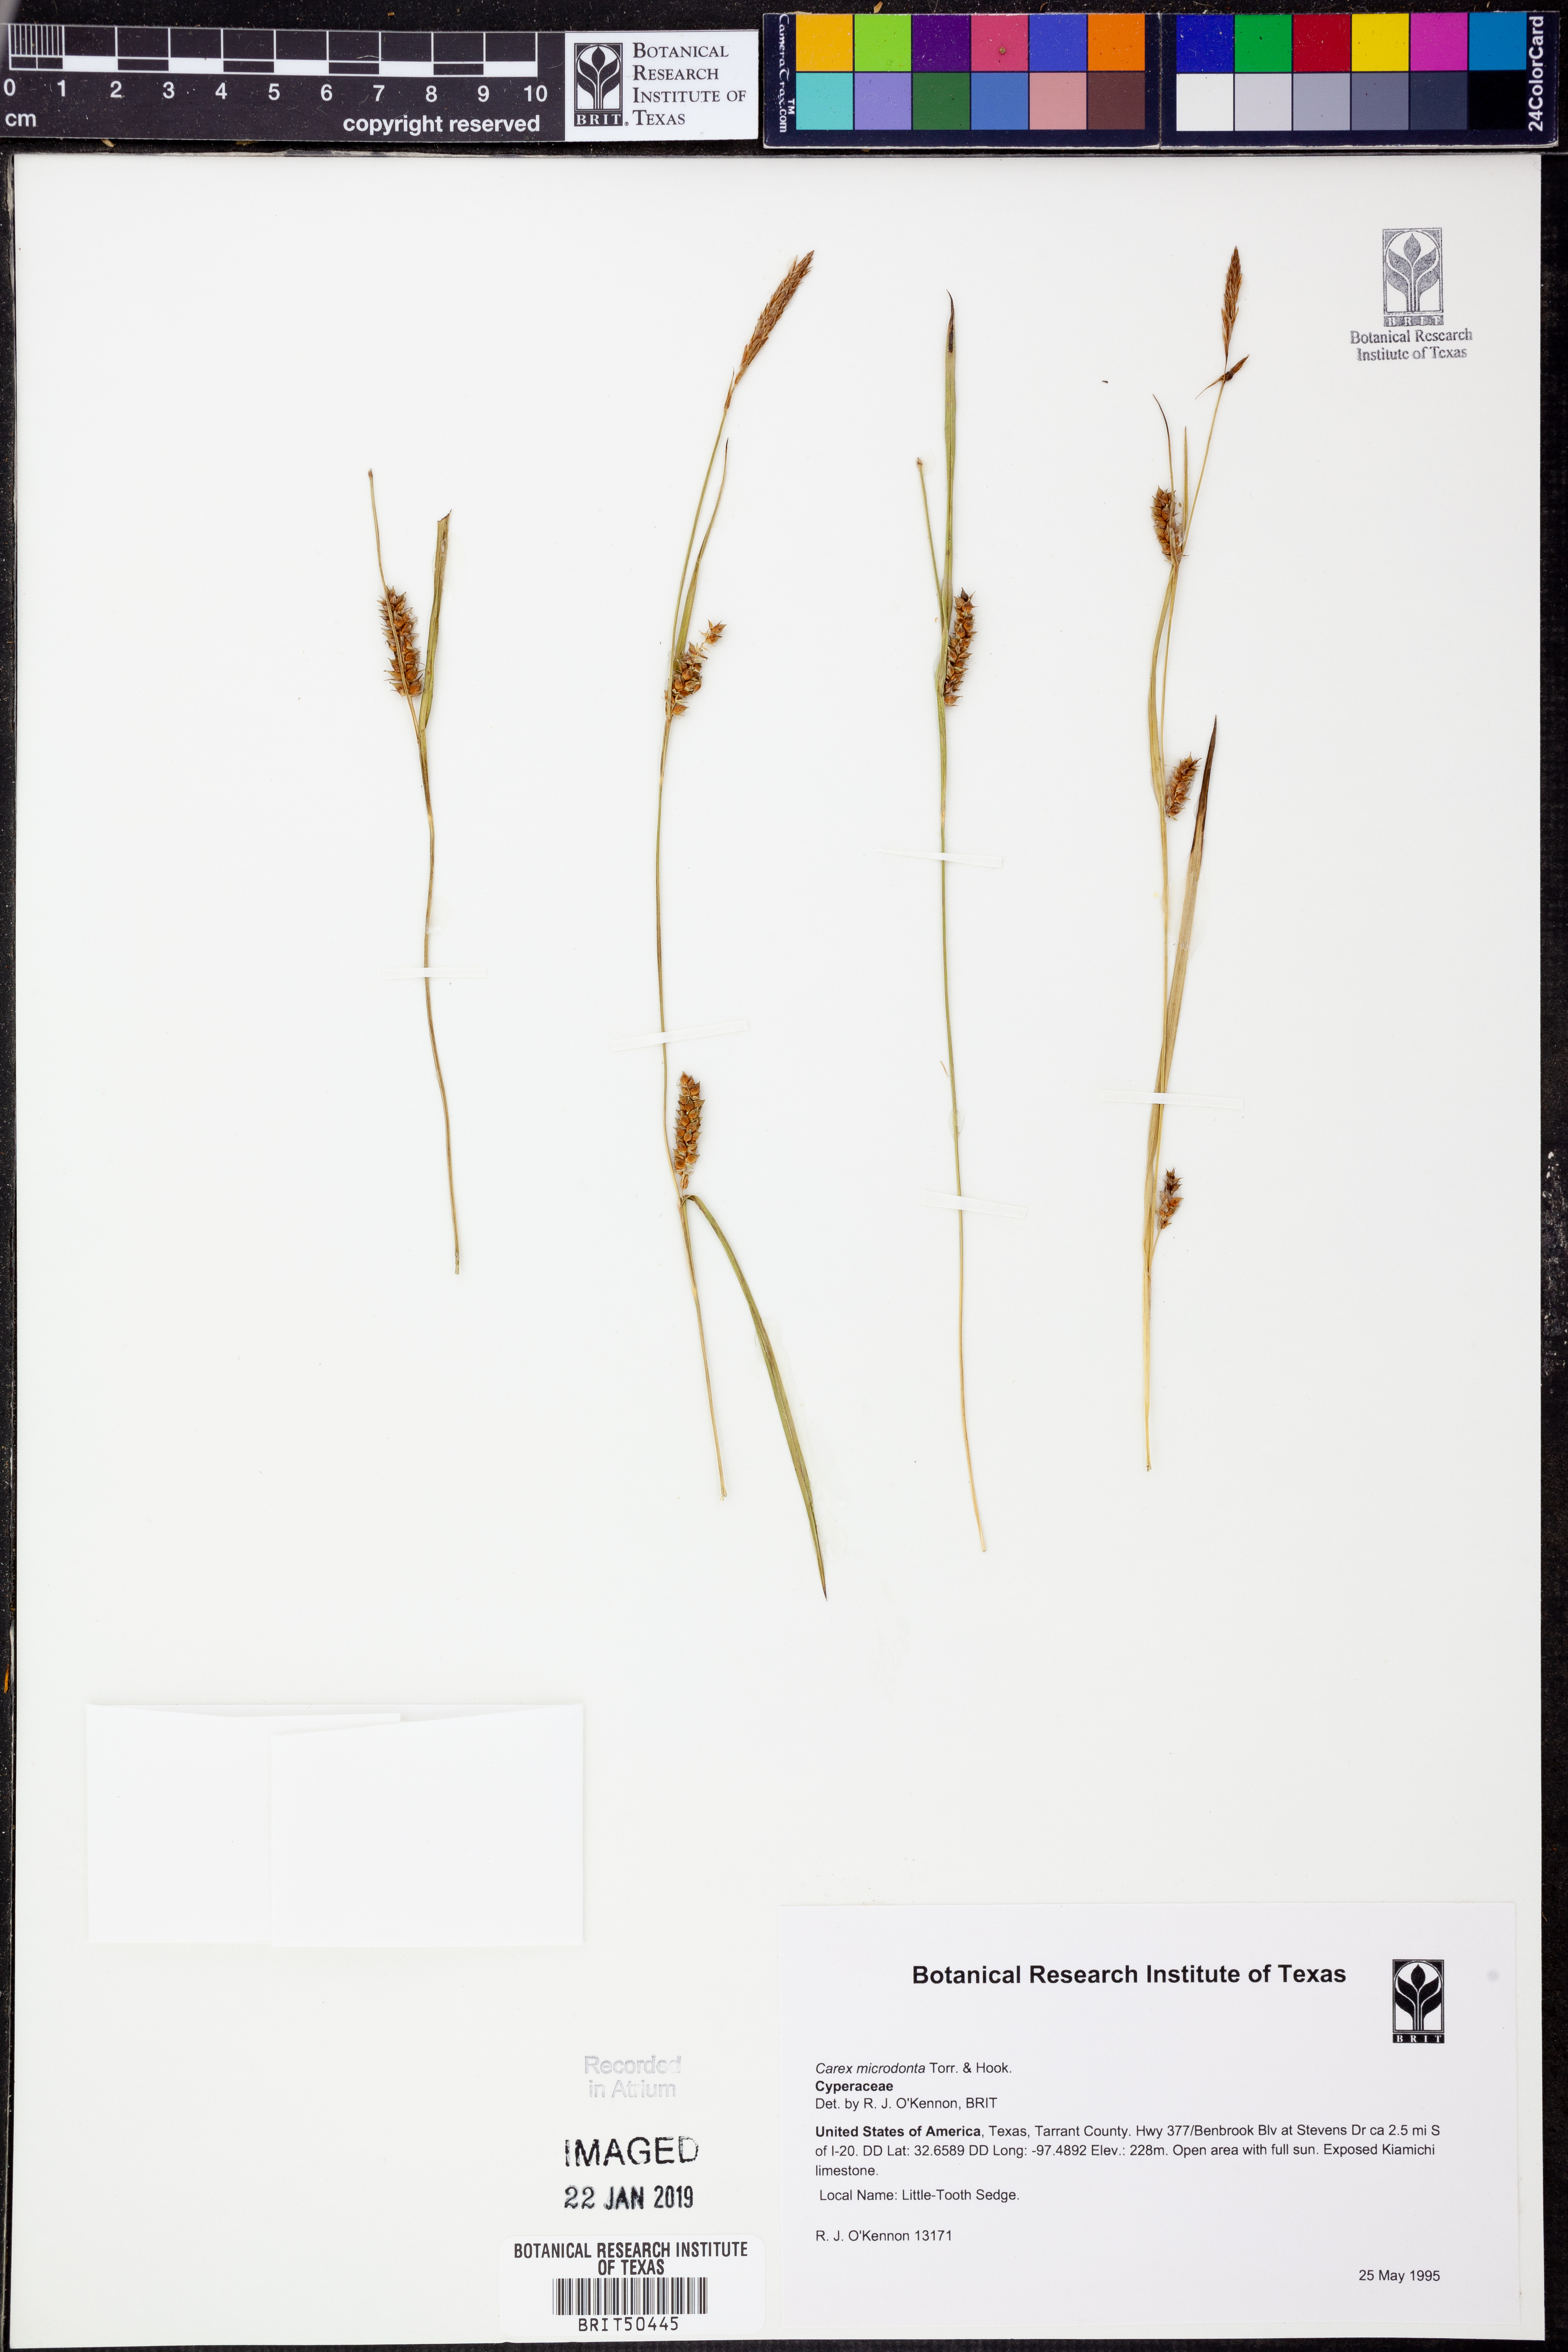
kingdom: Plantae
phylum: Tracheophyta
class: Liliopsida
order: Poales
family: Cyperaceae
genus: Carex
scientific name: Carex microdonta
